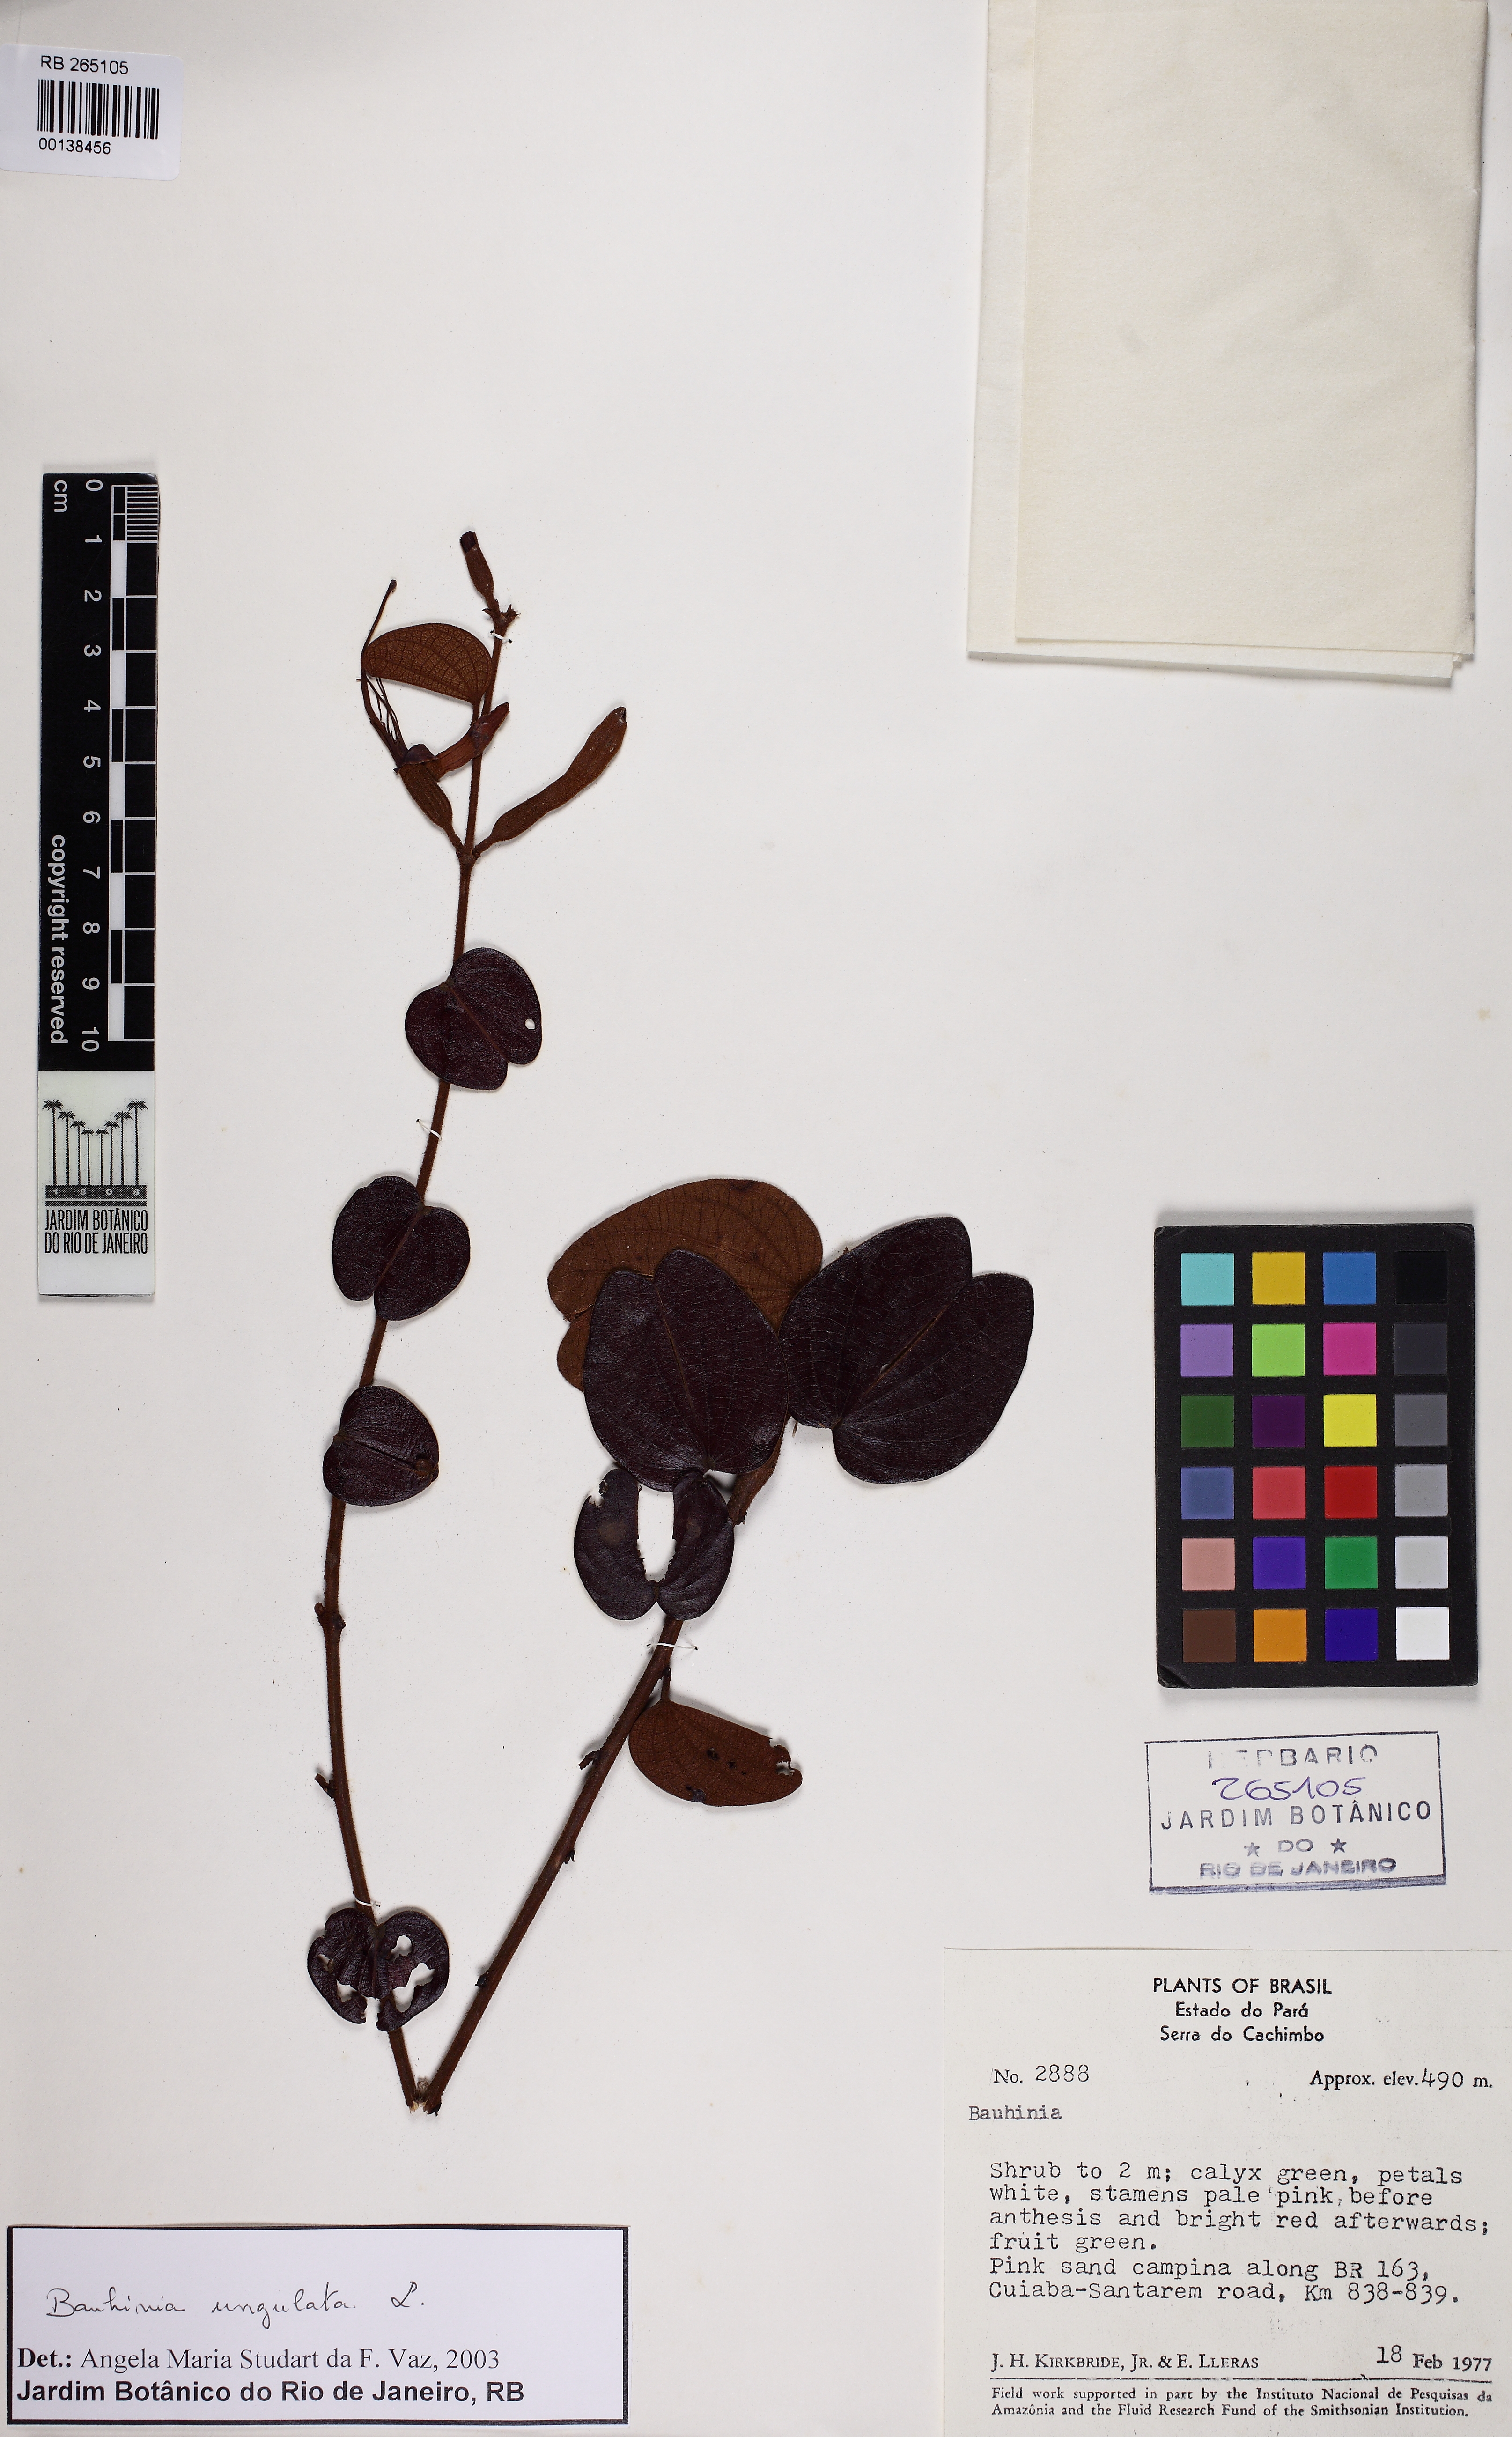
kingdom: Plantae
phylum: Tracheophyta
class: Magnoliopsida
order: Fabales
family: Fabaceae
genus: Bauhinia
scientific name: Bauhinia ungulata
